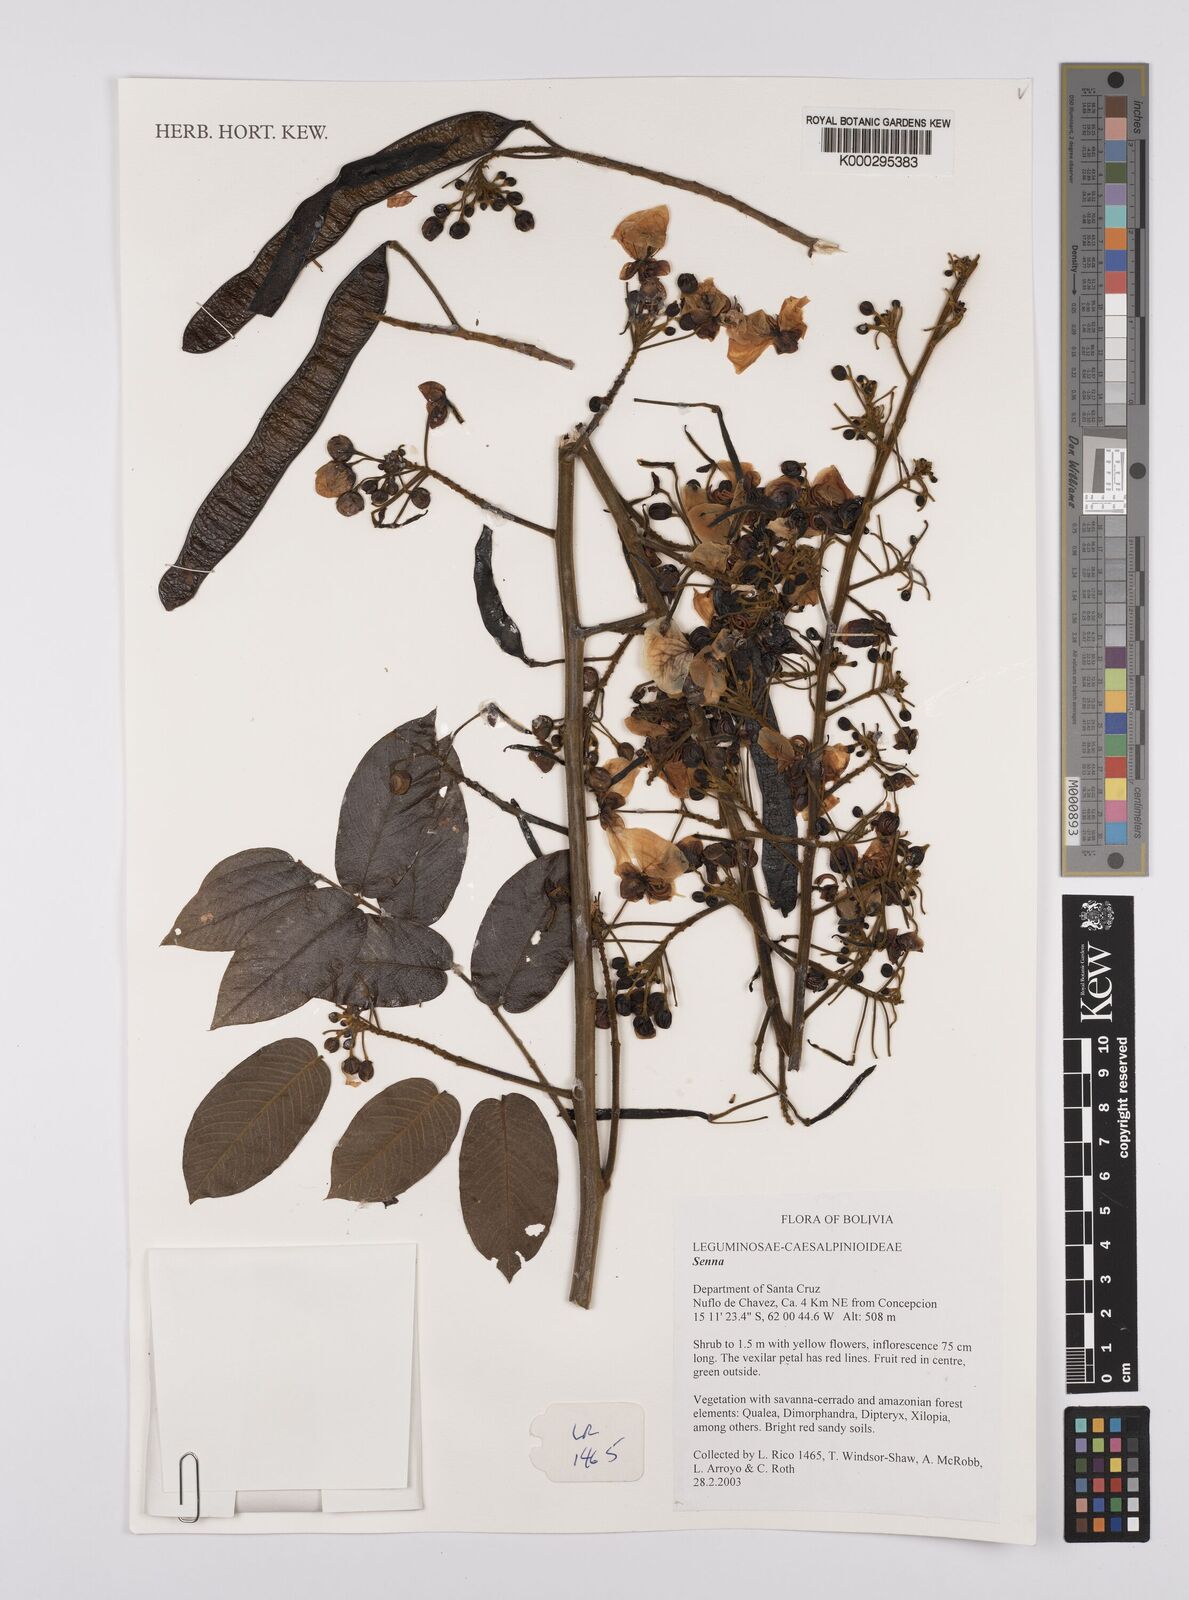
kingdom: Plantae
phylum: Tracheophyta
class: Magnoliopsida
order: Fabales
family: Fabaceae
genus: Senna
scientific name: Senna
